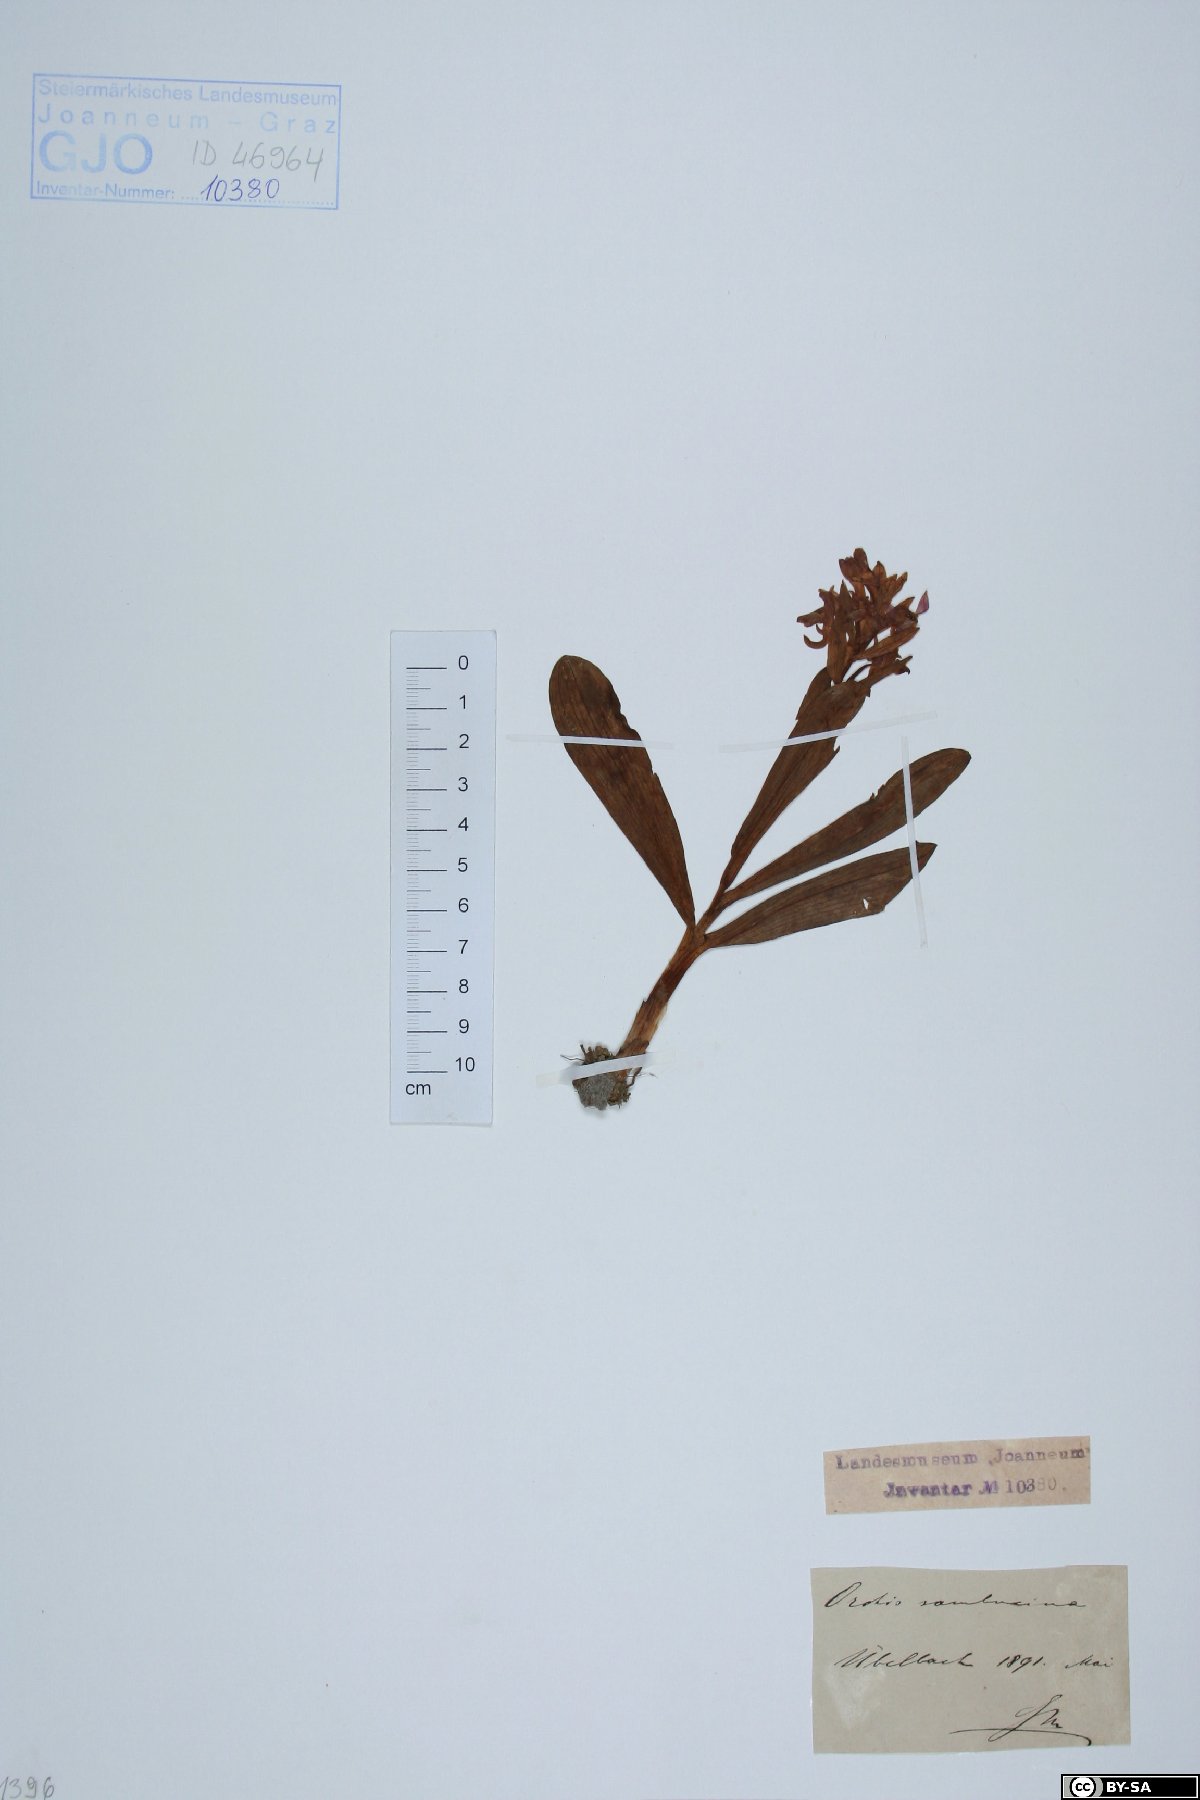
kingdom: Plantae
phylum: Tracheophyta
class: Liliopsida
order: Asparagales
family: Orchidaceae
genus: Dactylorhiza
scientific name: Dactylorhiza sambucina
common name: Elder-flowered orchid
